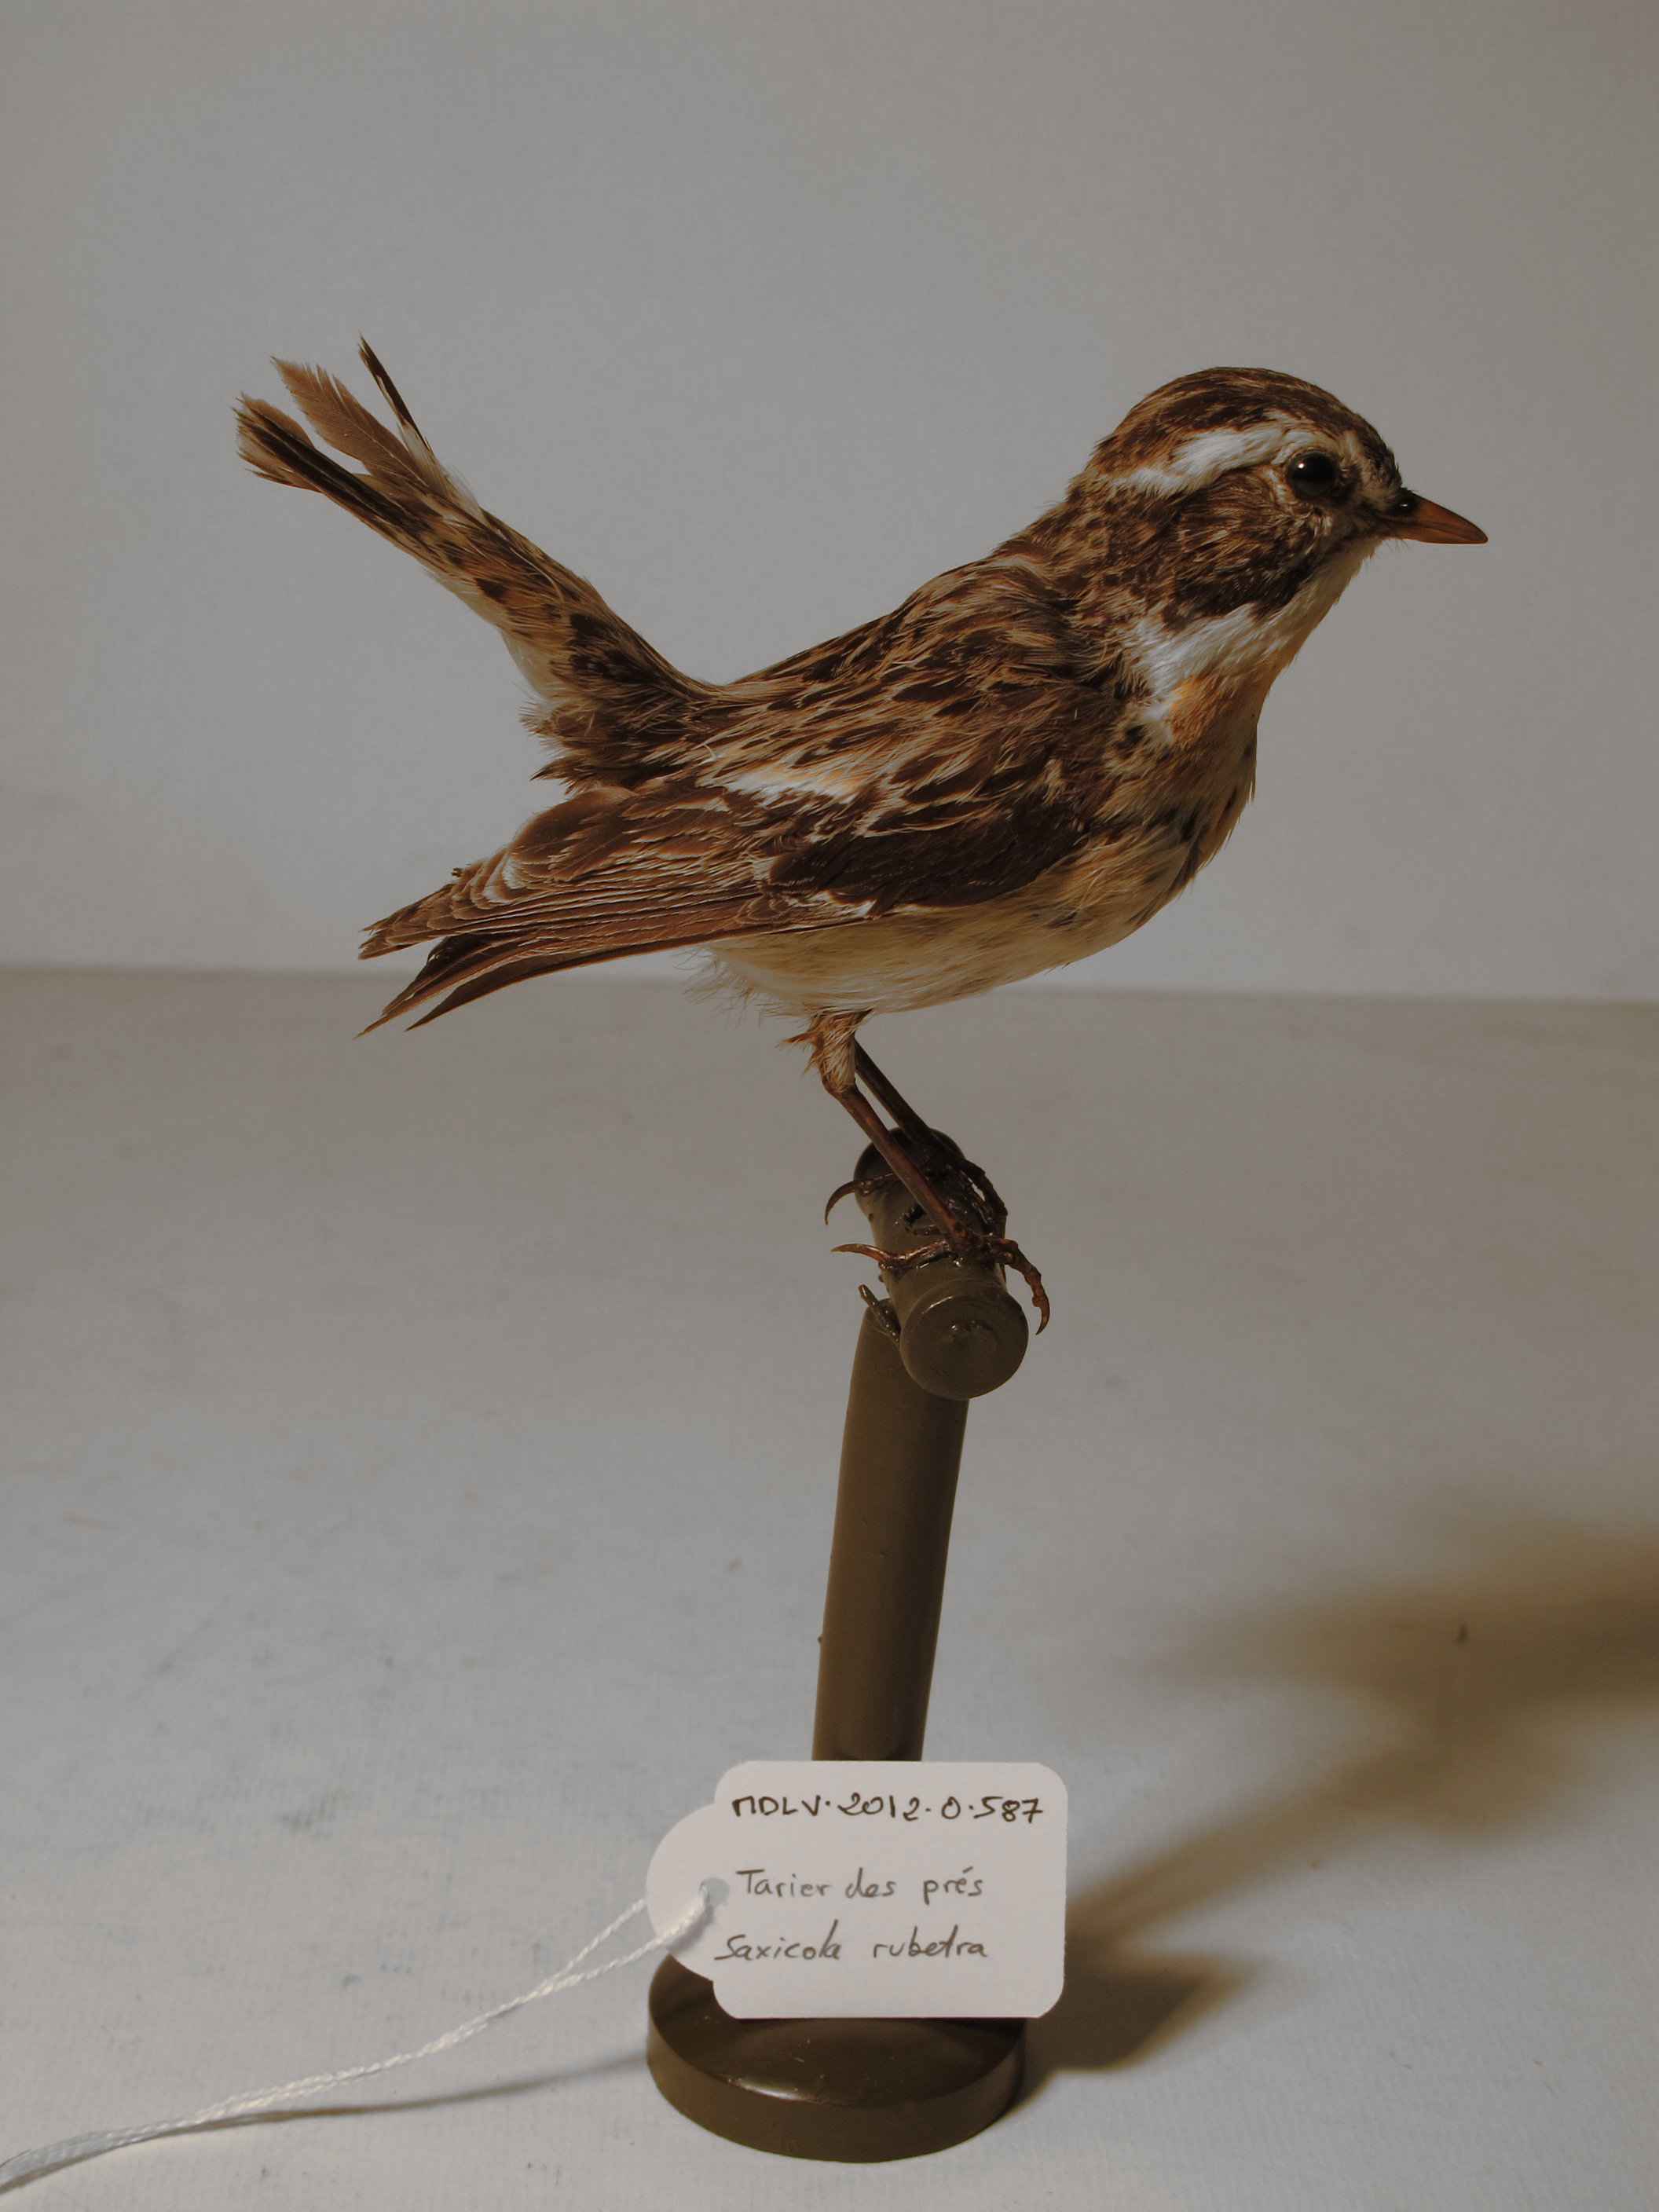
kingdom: Animalia
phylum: Chordata
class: Aves
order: Passeriformes
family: Muscicapidae
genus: Saxicola
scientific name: Saxicola rubetra
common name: Whinchat
